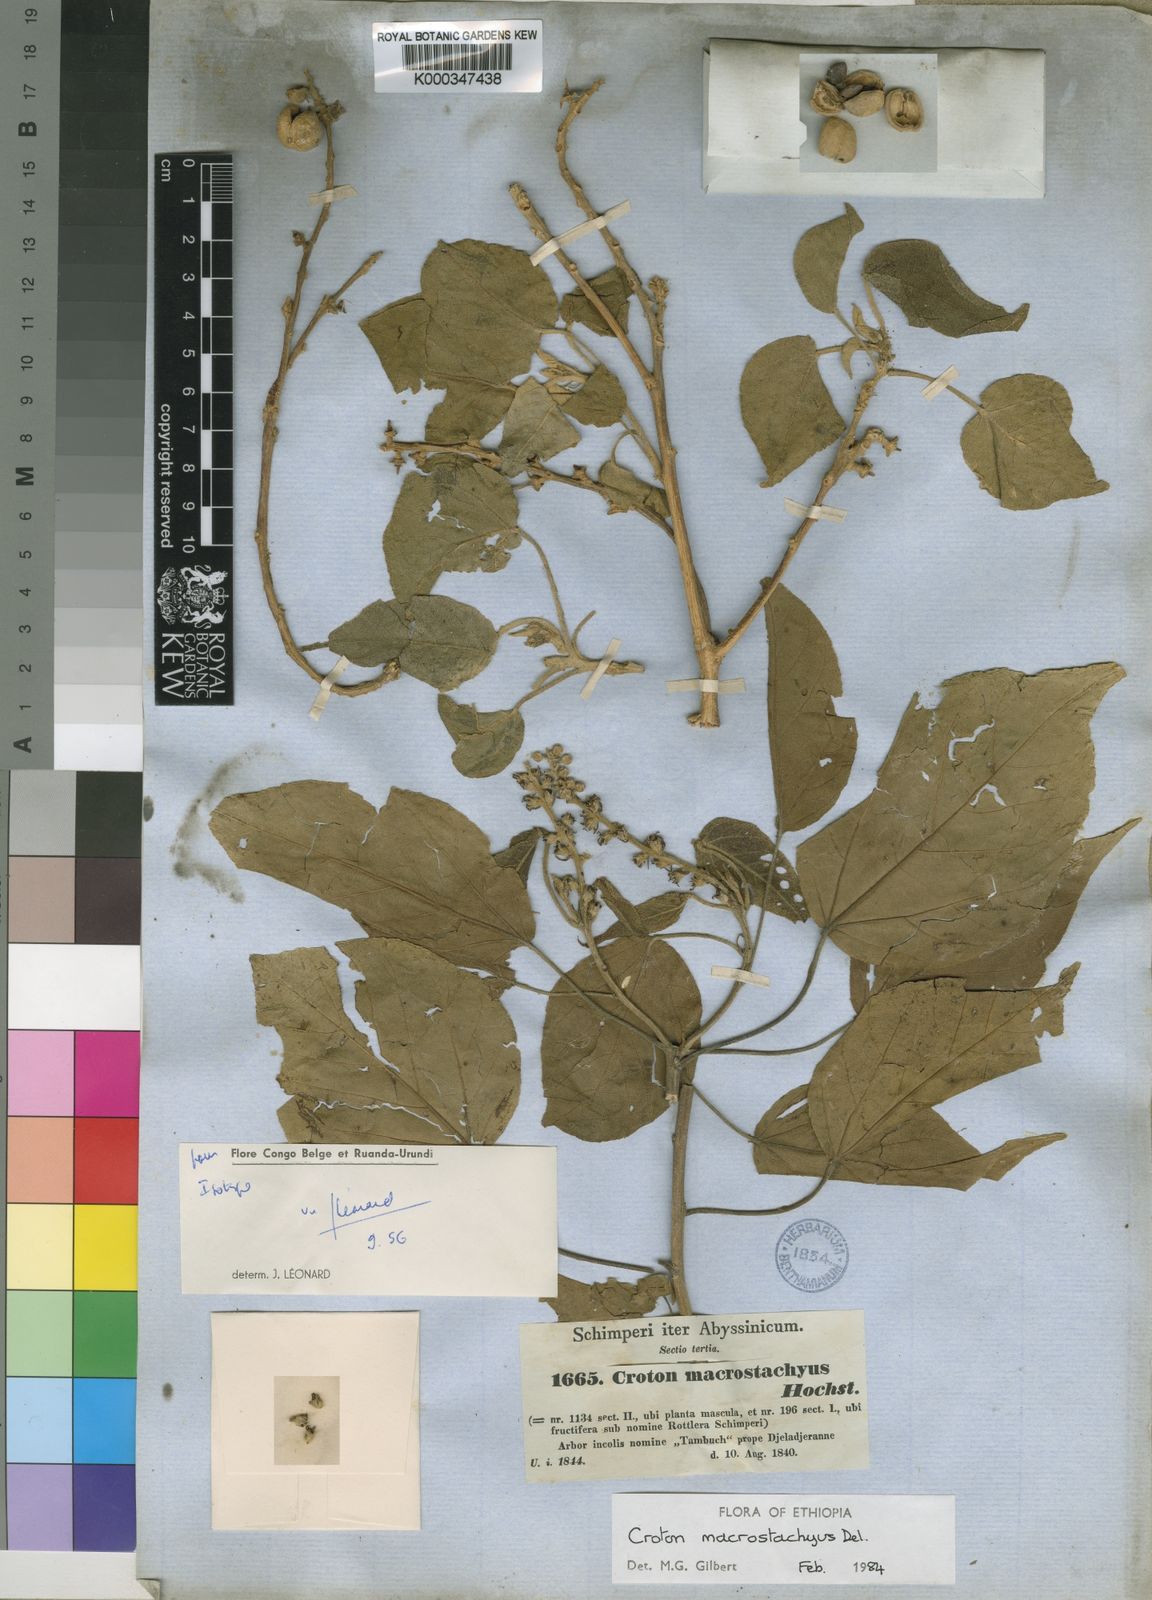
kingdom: Plantae
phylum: Tracheophyta
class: Magnoliopsida
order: Malpighiales
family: Euphorbiaceae
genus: Croton
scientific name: Croton macrostachyus
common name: Mutundu
